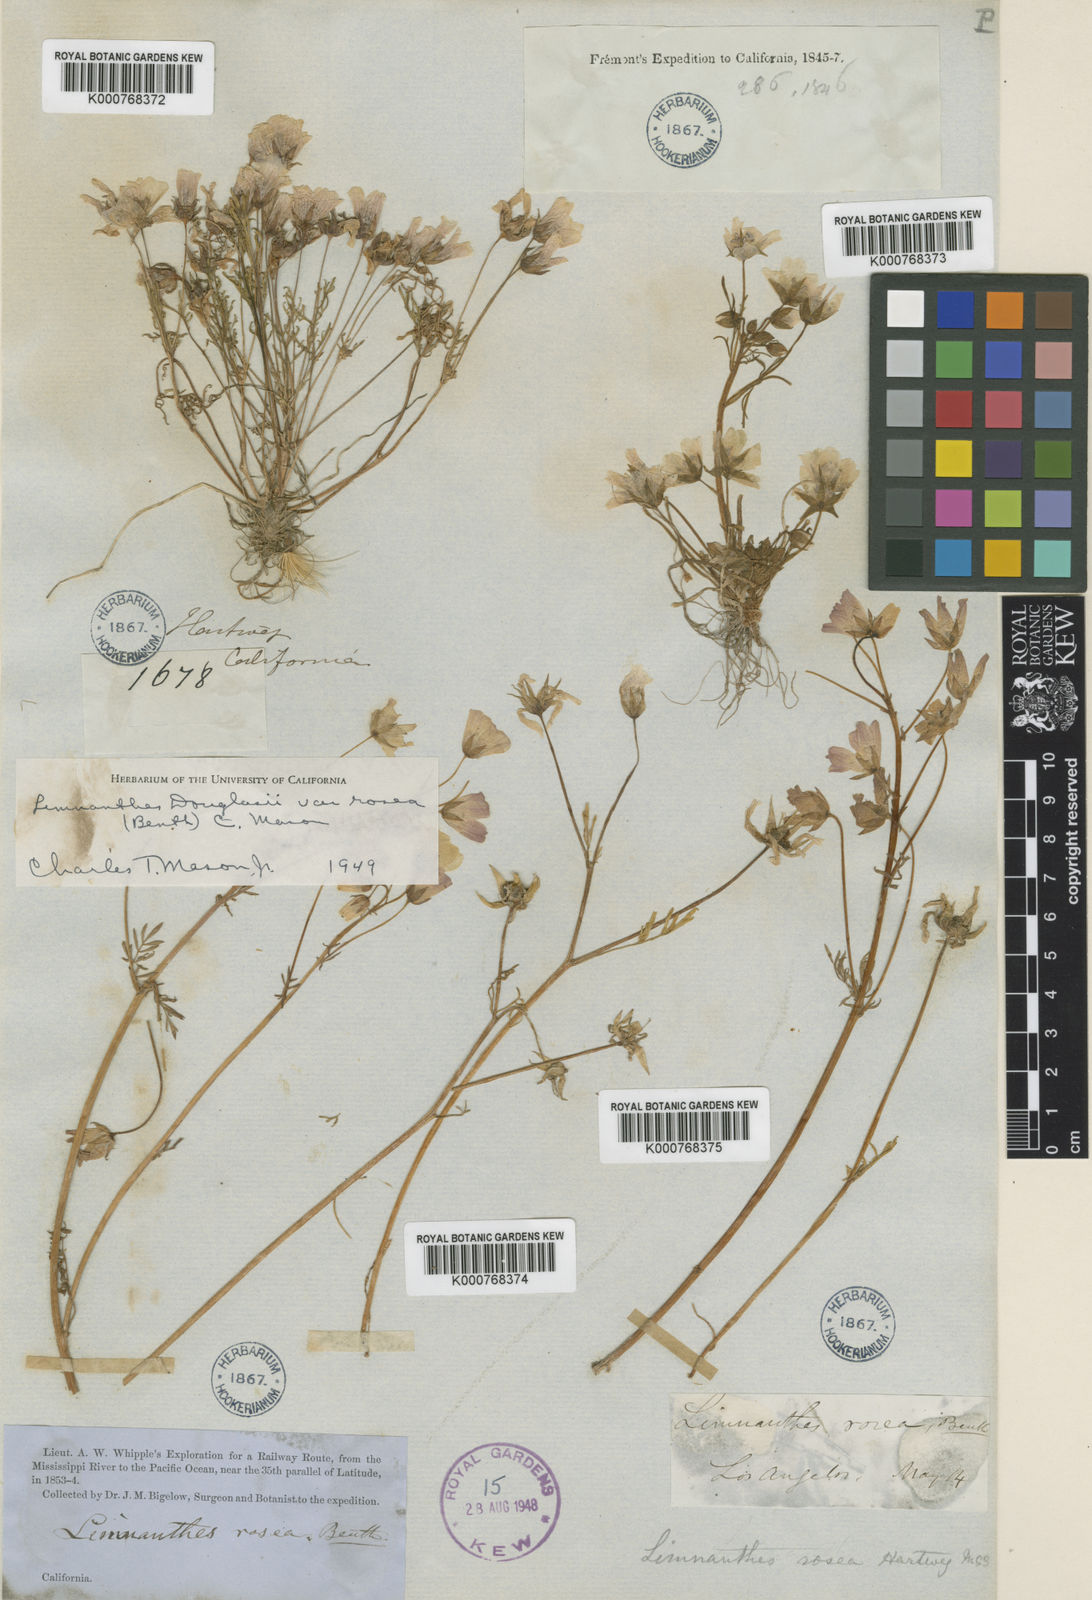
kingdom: Plantae
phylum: Tracheophyta
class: Magnoliopsida
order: Brassicales
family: Limnanthaceae
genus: Limnanthes
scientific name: Limnanthes douglasii
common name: Meadow-foam
